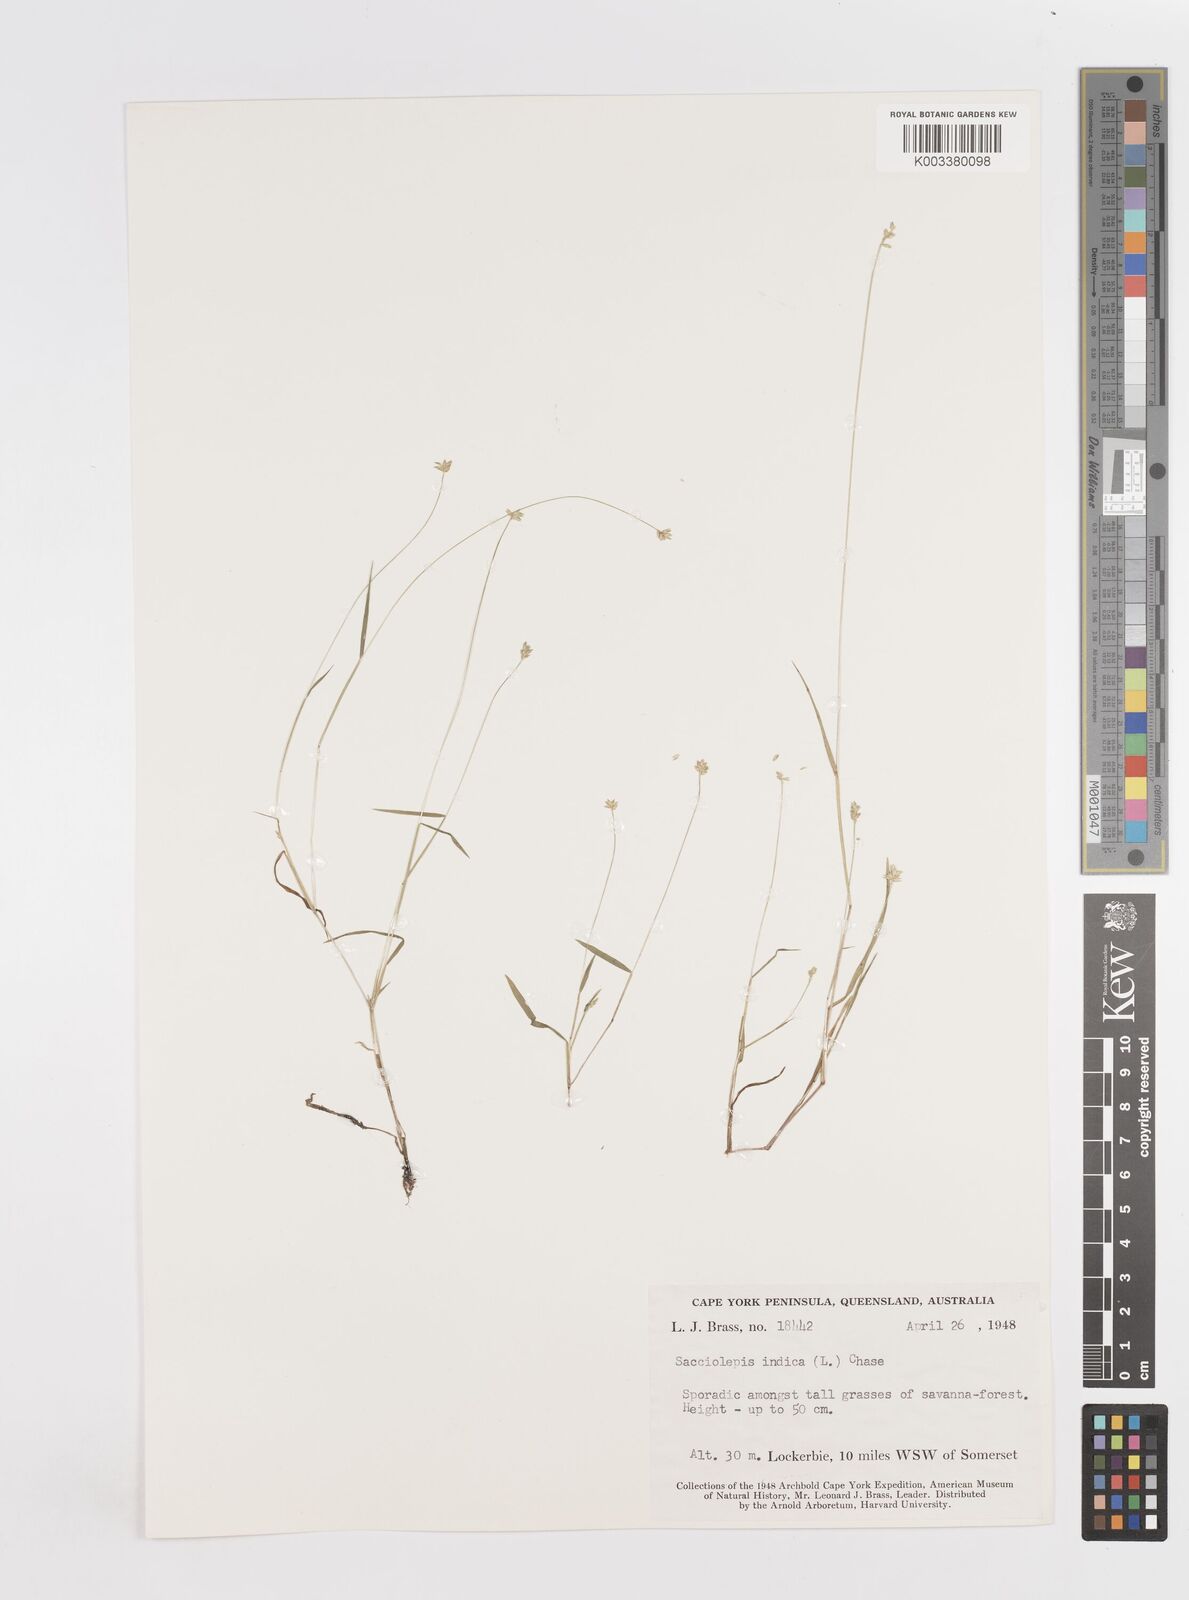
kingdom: Plantae
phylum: Tracheophyta
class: Liliopsida
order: Poales
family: Poaceae
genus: Sacciolepis
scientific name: Sacciolepis indica
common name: Glenwoodgrass
